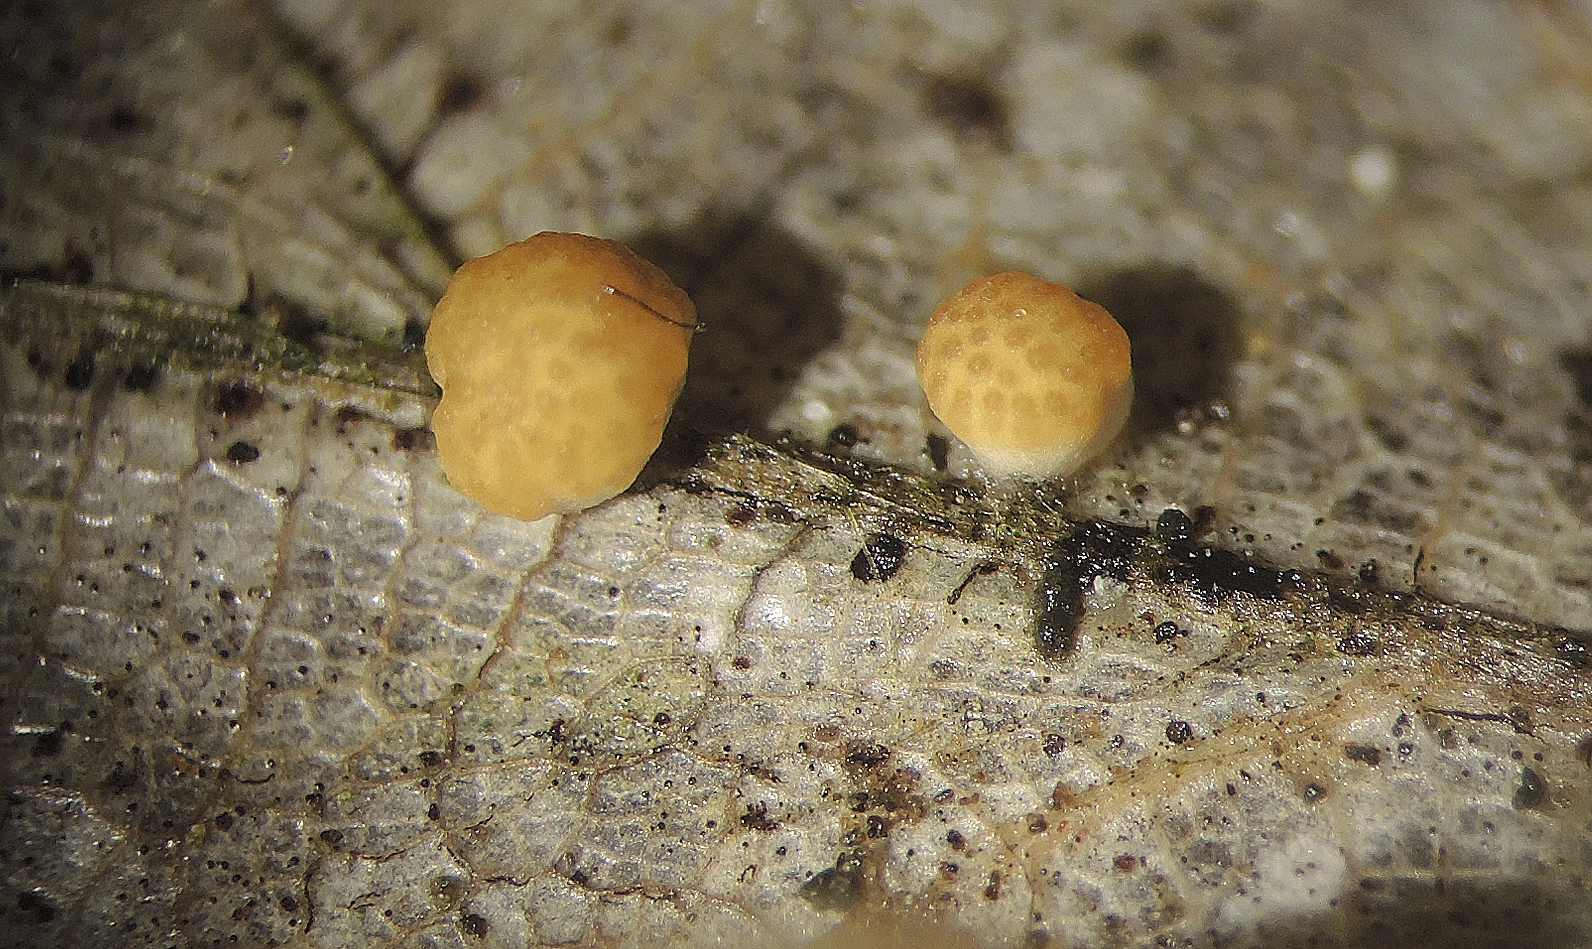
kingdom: Fungi
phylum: Ascomycota
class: Sordariomycetes
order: Hypocreales
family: Hypocreaceae
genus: Trichoderma
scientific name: Trichoderma foliicola
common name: egeløv-kødkerne
